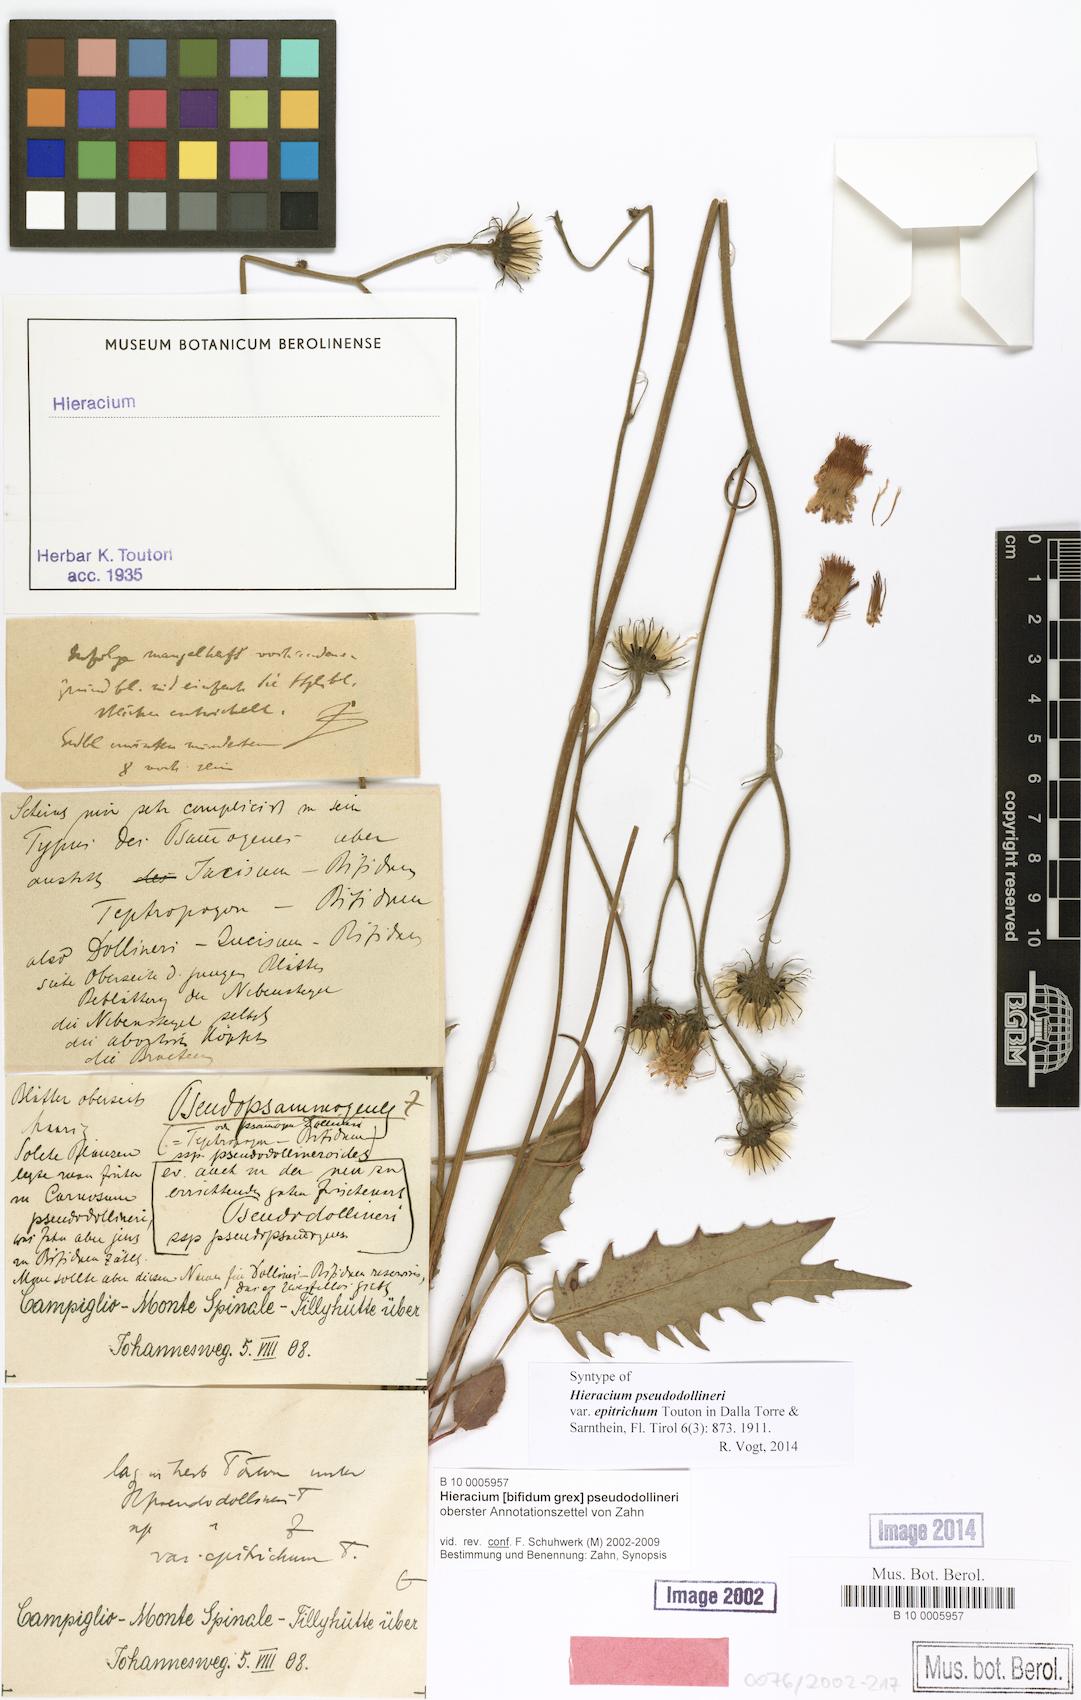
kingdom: Plantae
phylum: Tracheophyta
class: Magnoliopsida
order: Asterales
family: Asteraceae
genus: Hieracium
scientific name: Hieracium bifidum
